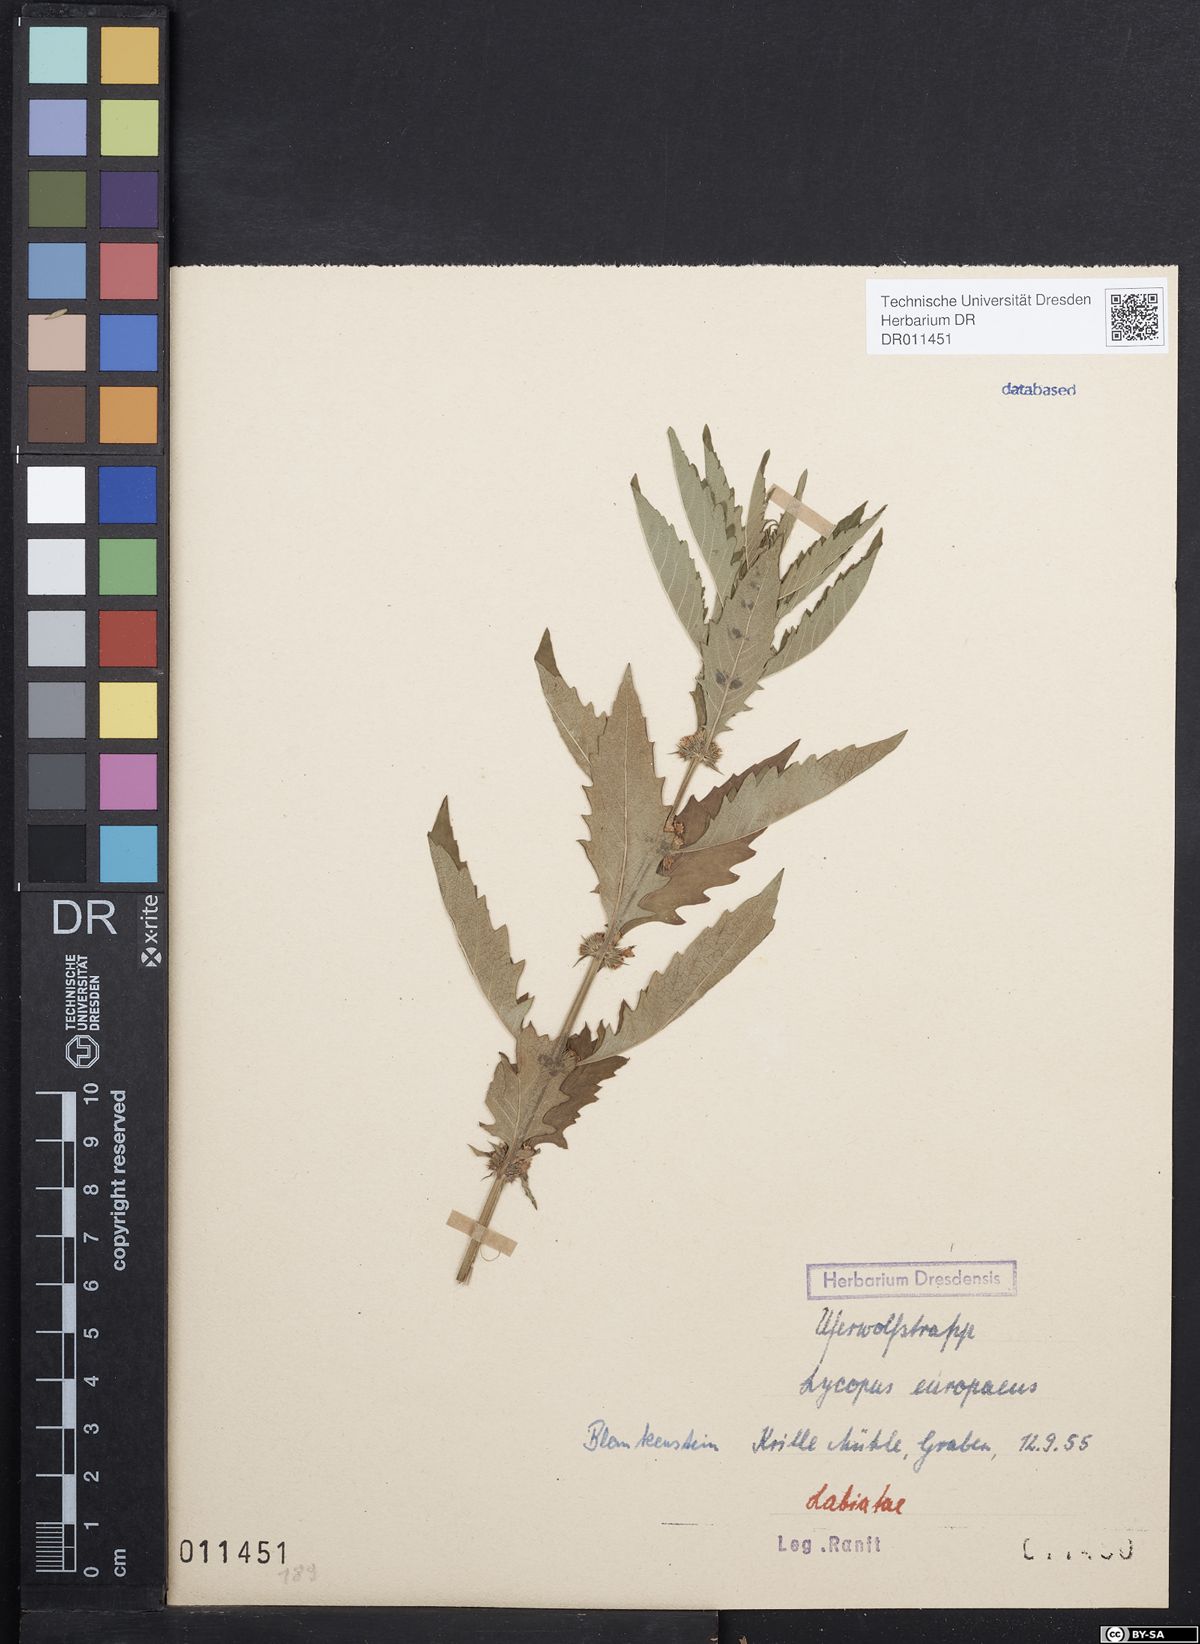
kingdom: Plantae
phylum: Tracheophyta
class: Magnoliopsida
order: Lamiales
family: Lamiaceae
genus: Lycopus
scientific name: Lycopus europaeus
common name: European bugleweed
